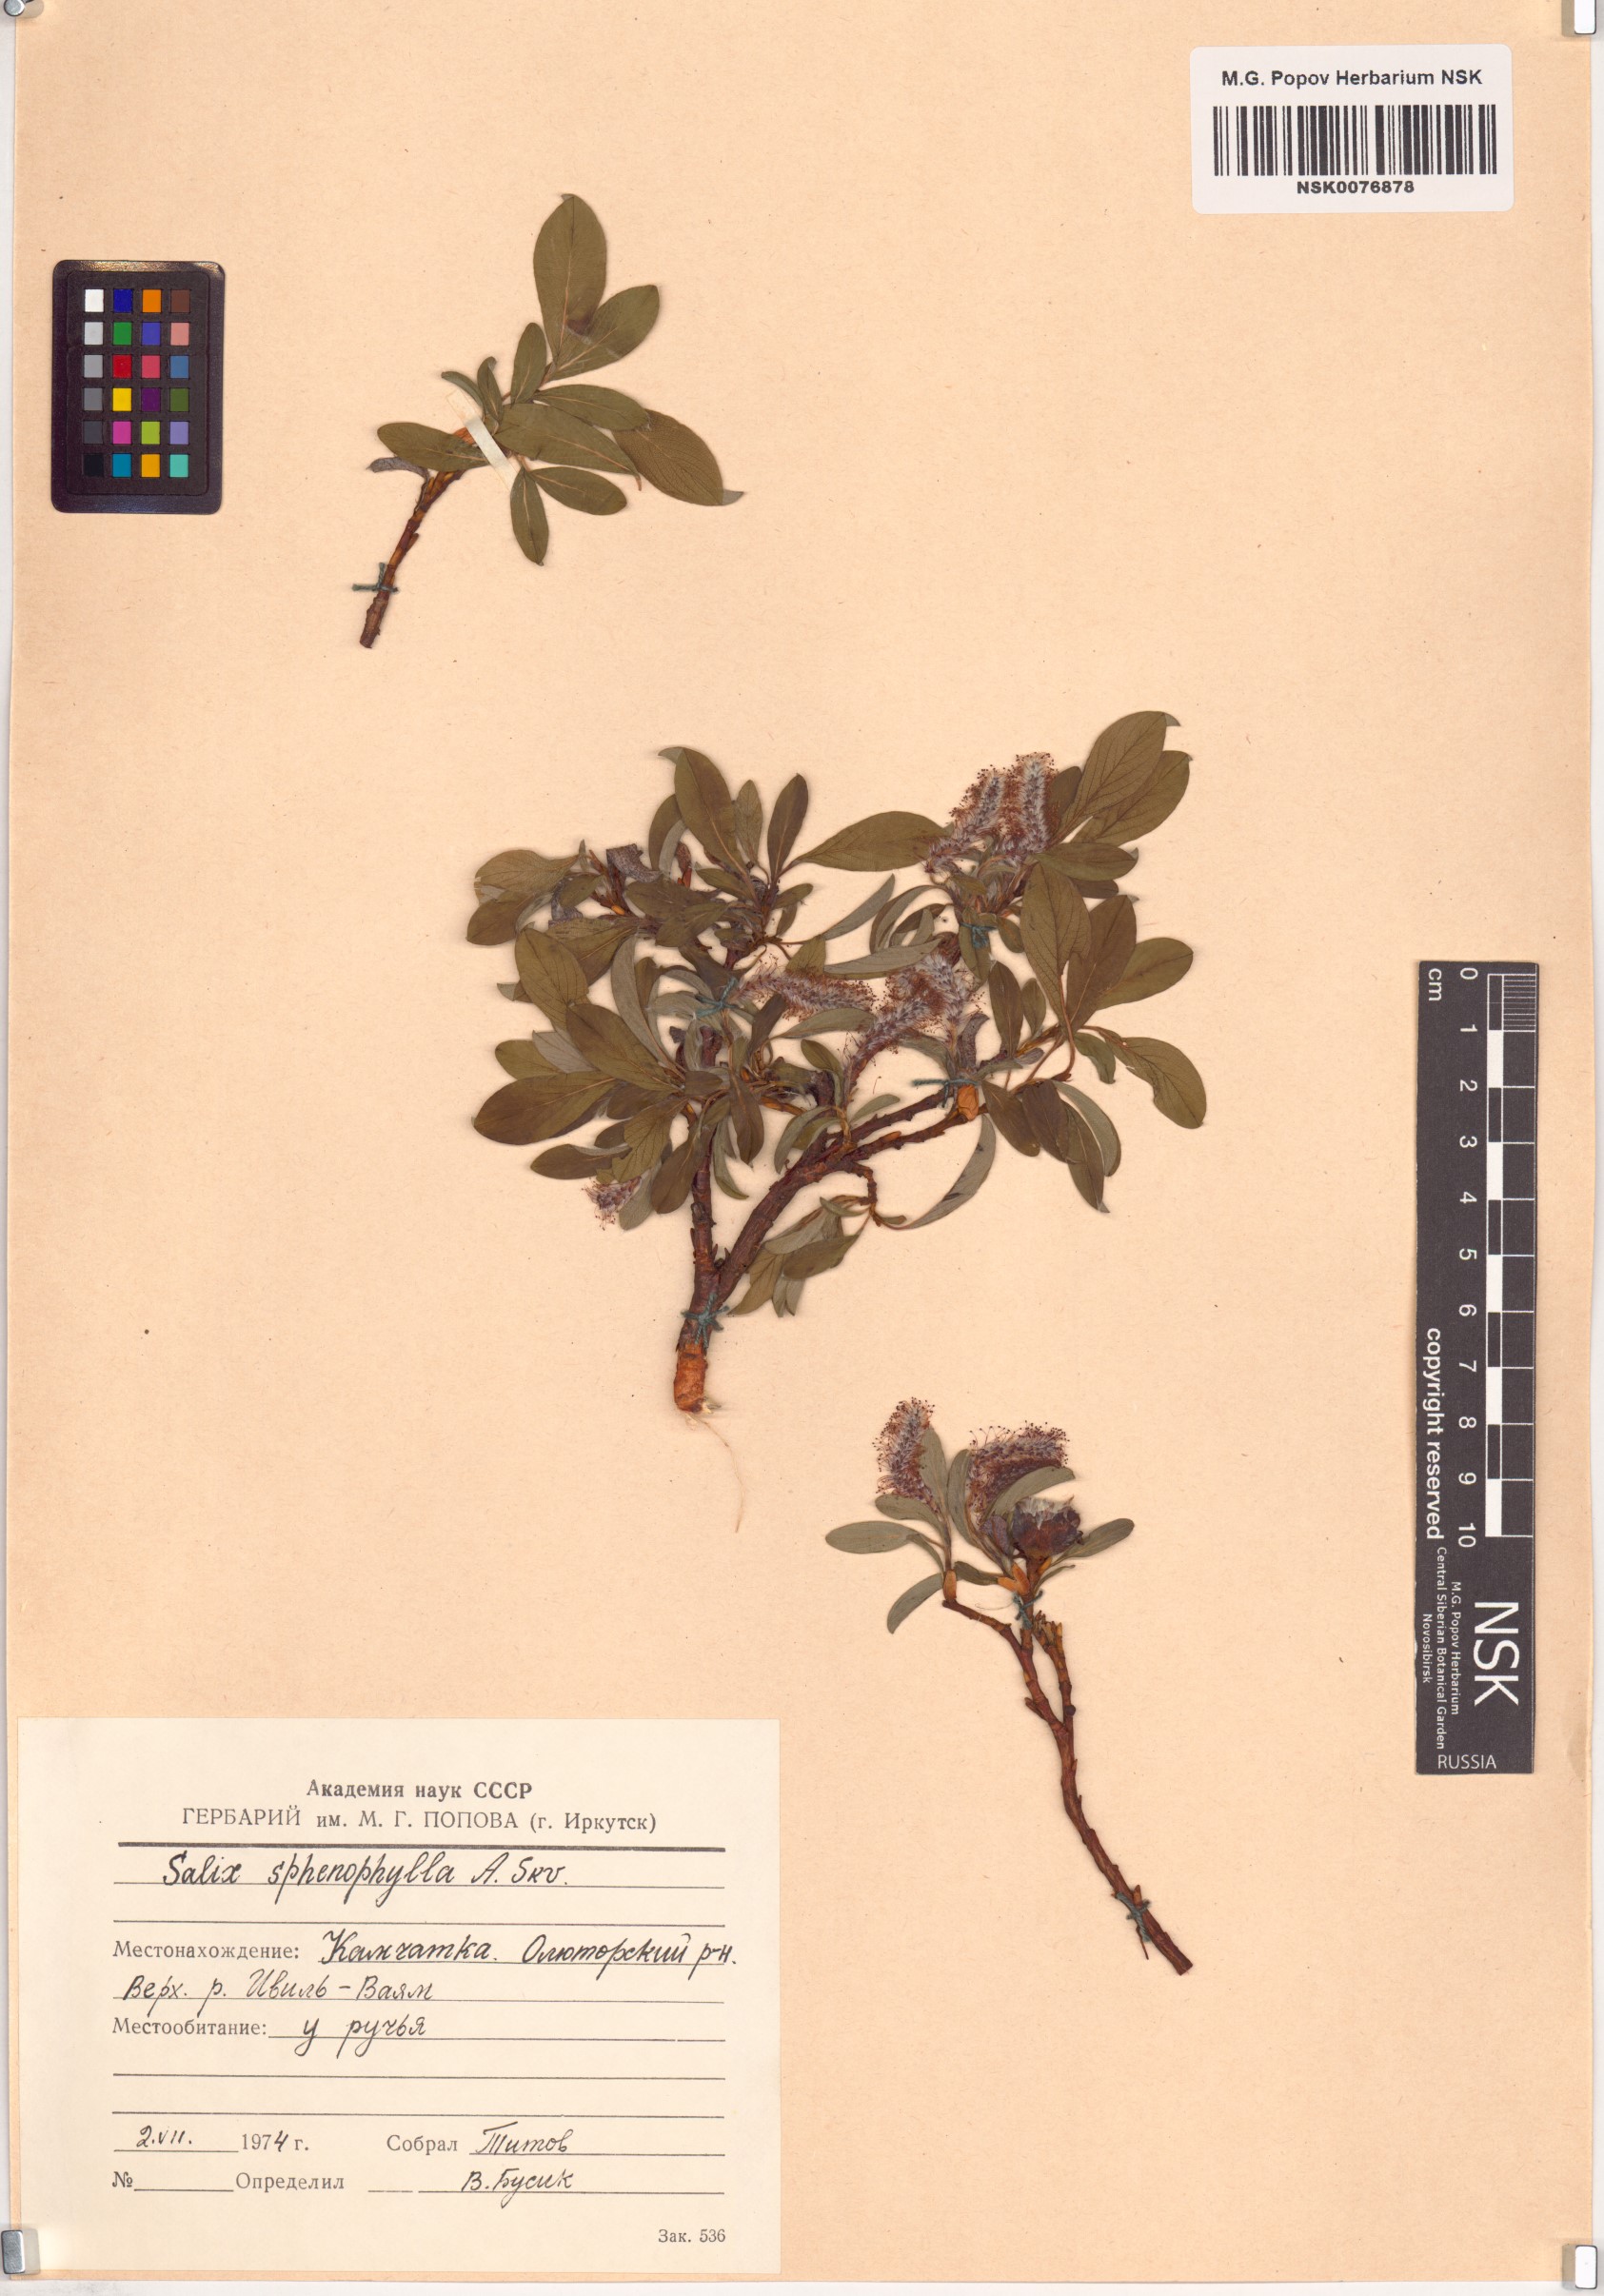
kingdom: Plantae
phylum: Tracheophyta
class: Magnoliopsida
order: Malpighiales
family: Salicaceae
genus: Salix
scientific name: Salix sphenophylla
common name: Wedge-leaved willow
